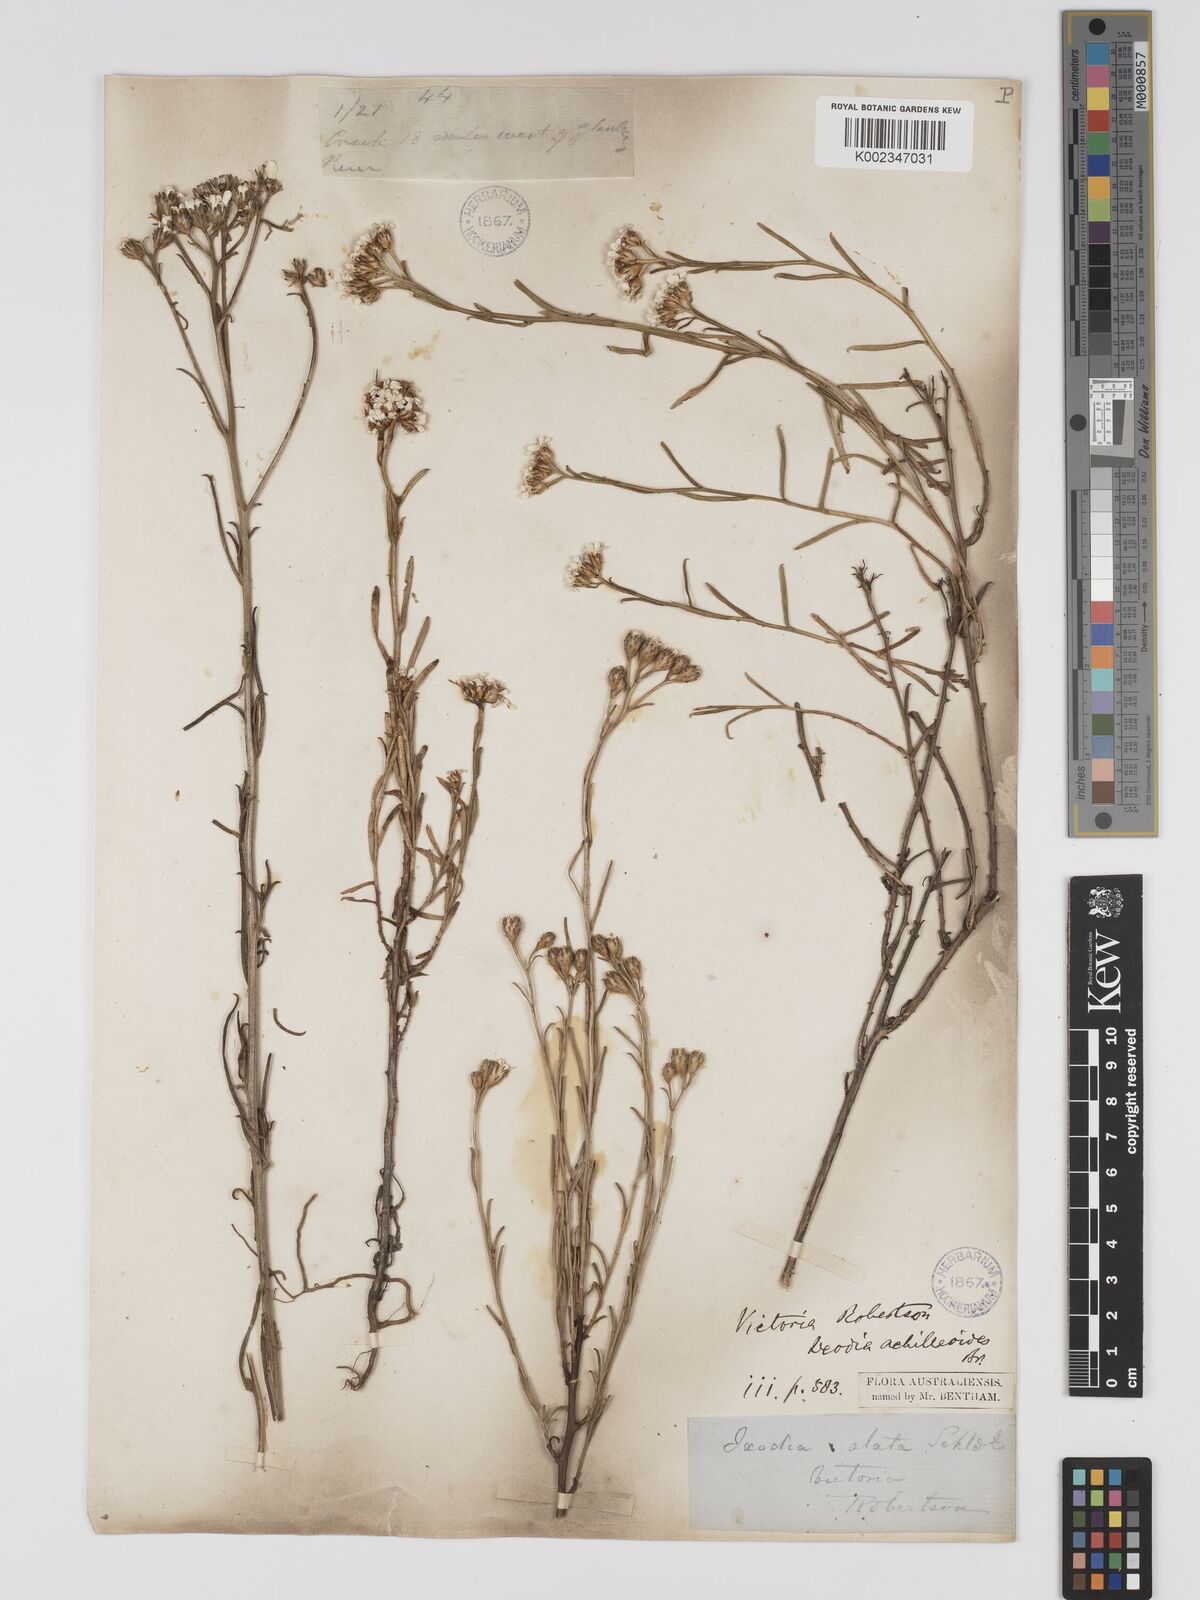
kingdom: Plantae
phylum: Tracheophyta
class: Magnoliopsida
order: Asterales
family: Asteraceae
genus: Ixodia
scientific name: Ixodia achilleoides
